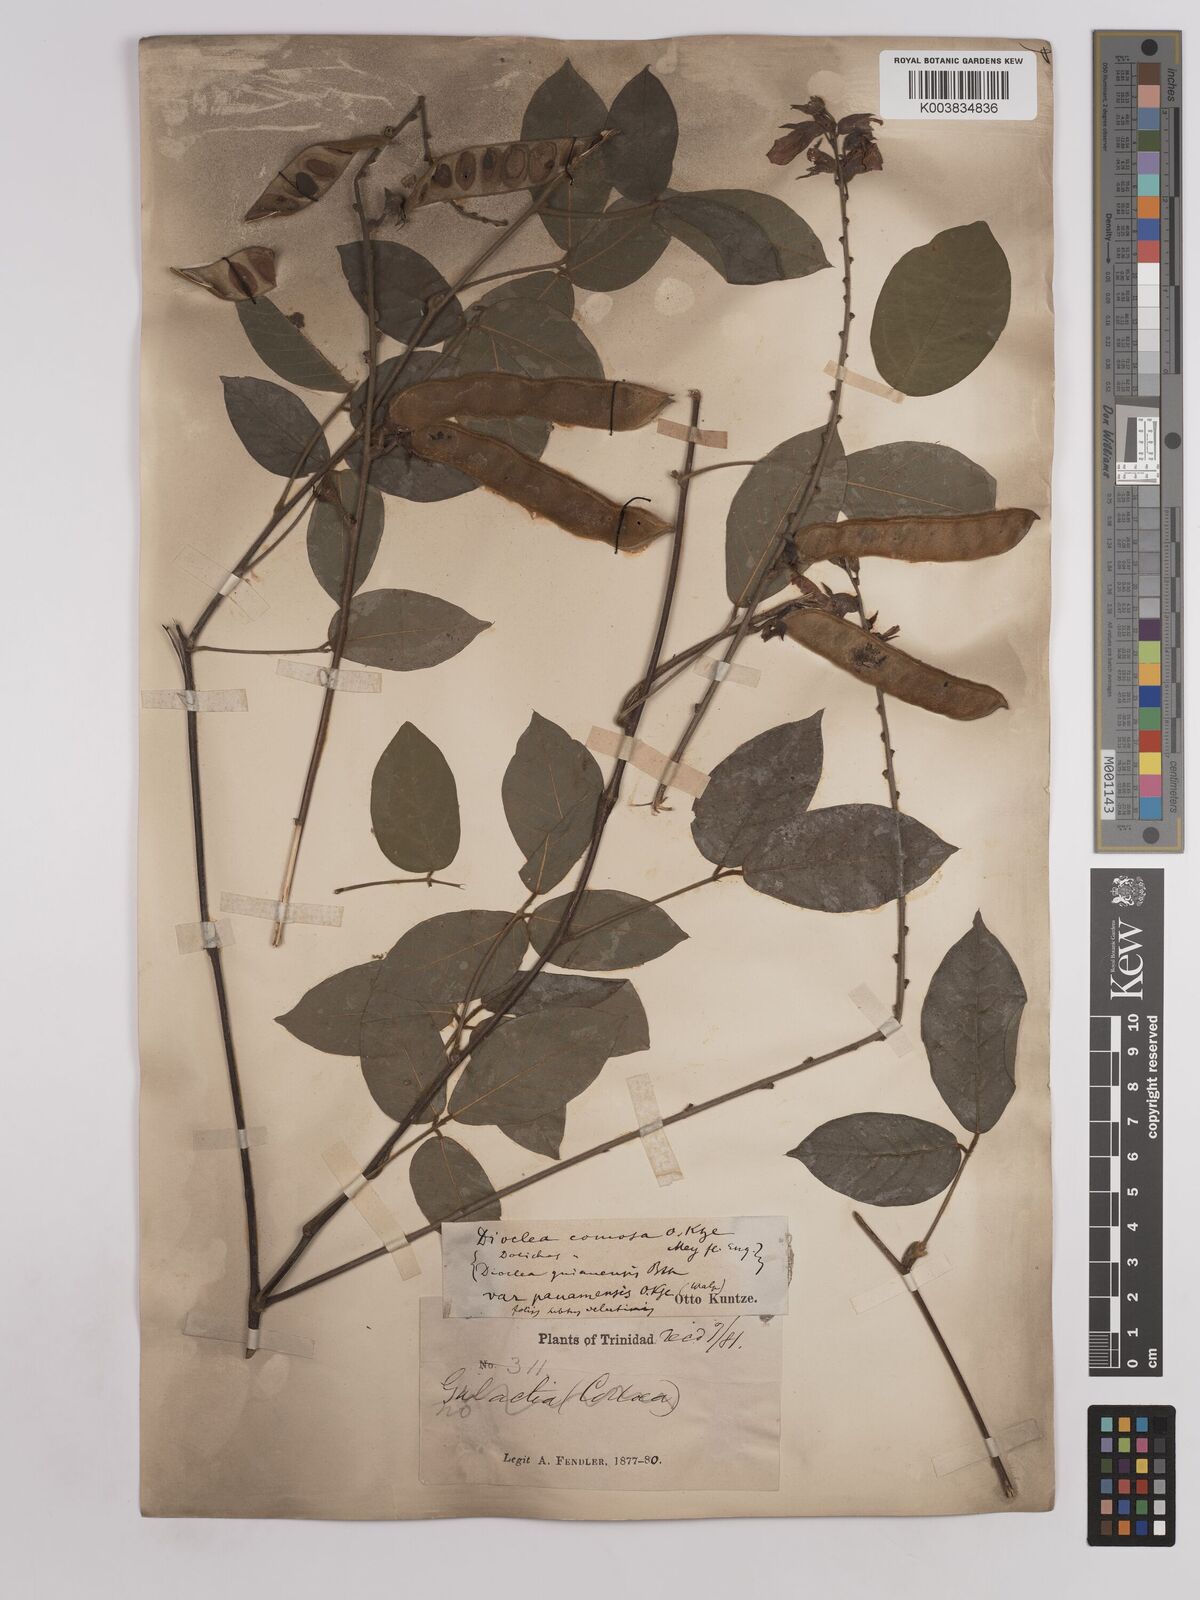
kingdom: Plantae
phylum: Tracheophyta
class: Magnoliopsida
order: Fabales
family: Fabaceae
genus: Dioclea
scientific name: Dioclea guianensis
